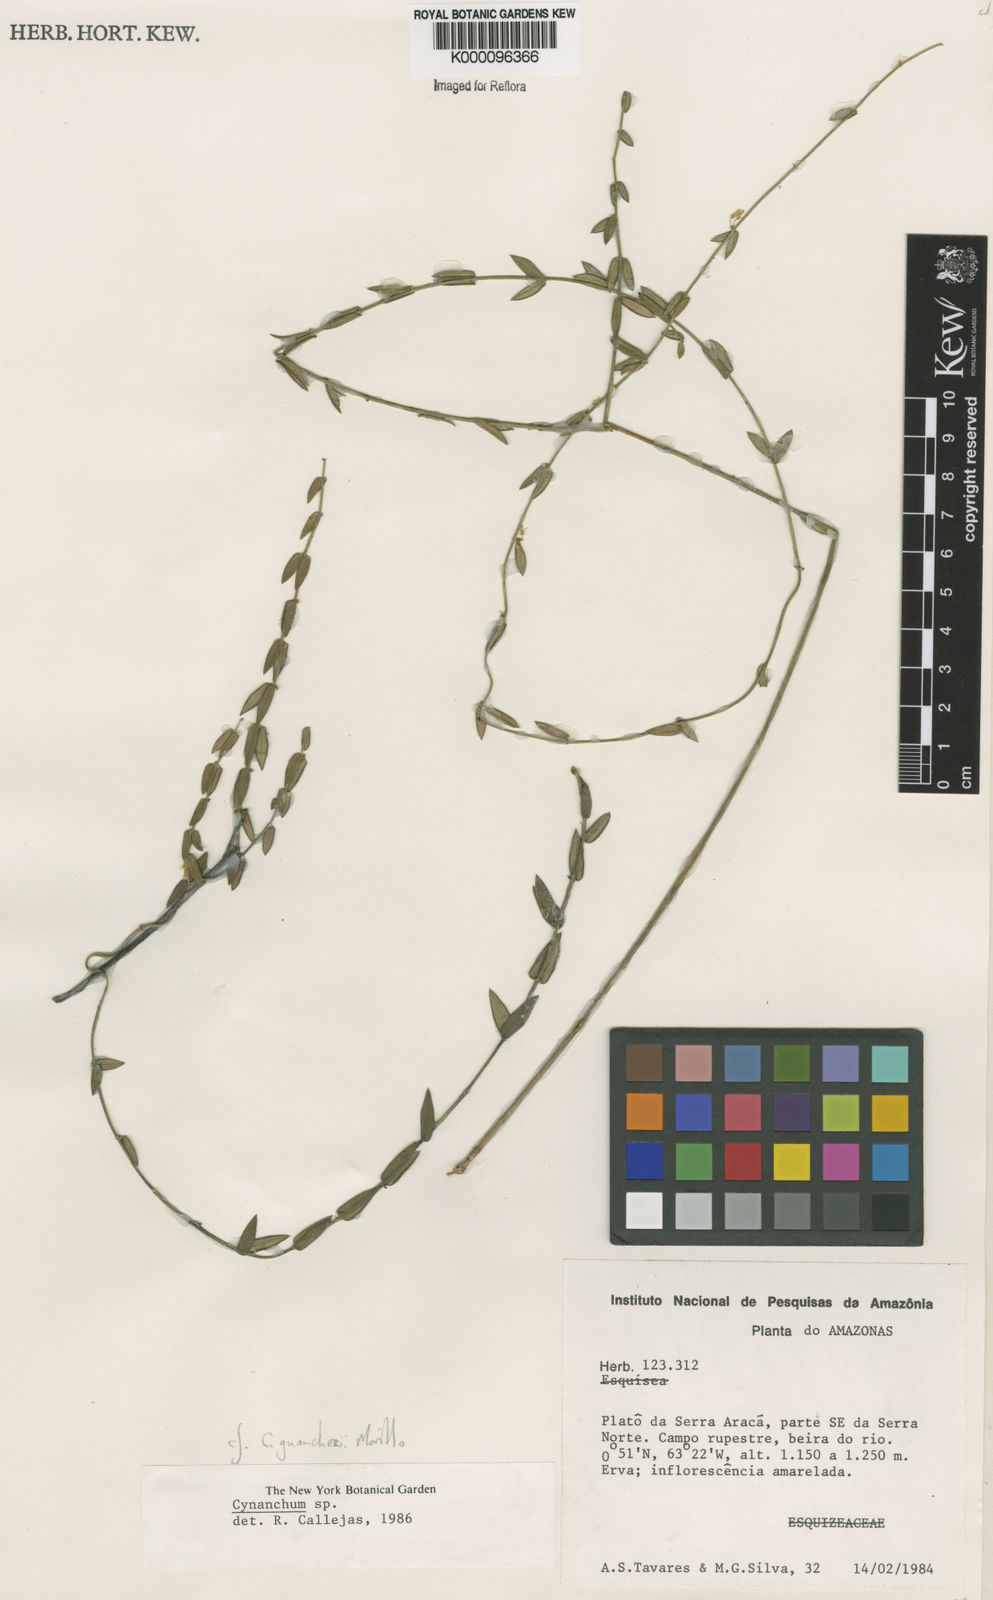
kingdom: Plantae
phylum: Tracheophyta
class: Magnoliopsida
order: Gentianales
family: Apocynaceae
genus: Tassadia
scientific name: Tassadia guanchezii
